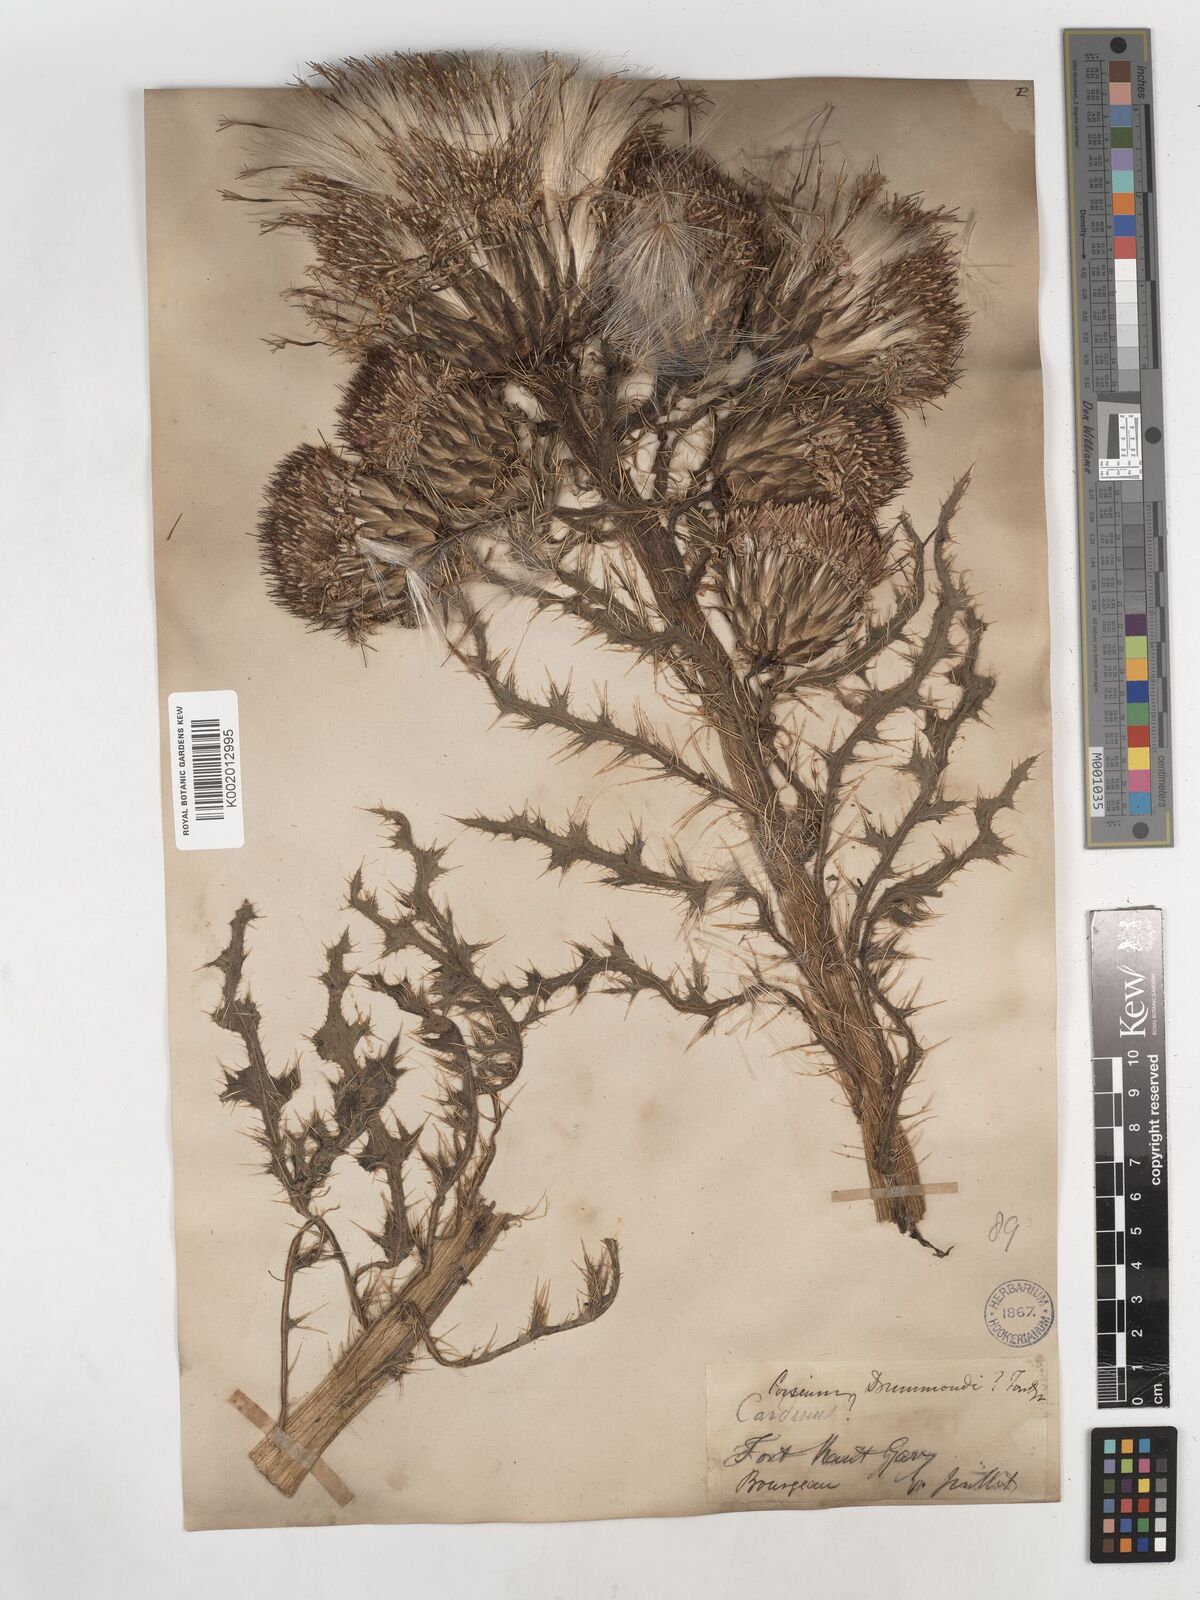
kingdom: Plantae
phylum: Tracheophyta
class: Magnoliopsida
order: Asterales
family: Asteraceae
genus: Cirsium
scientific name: Cirsium drummondii
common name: Drummond's thistle
